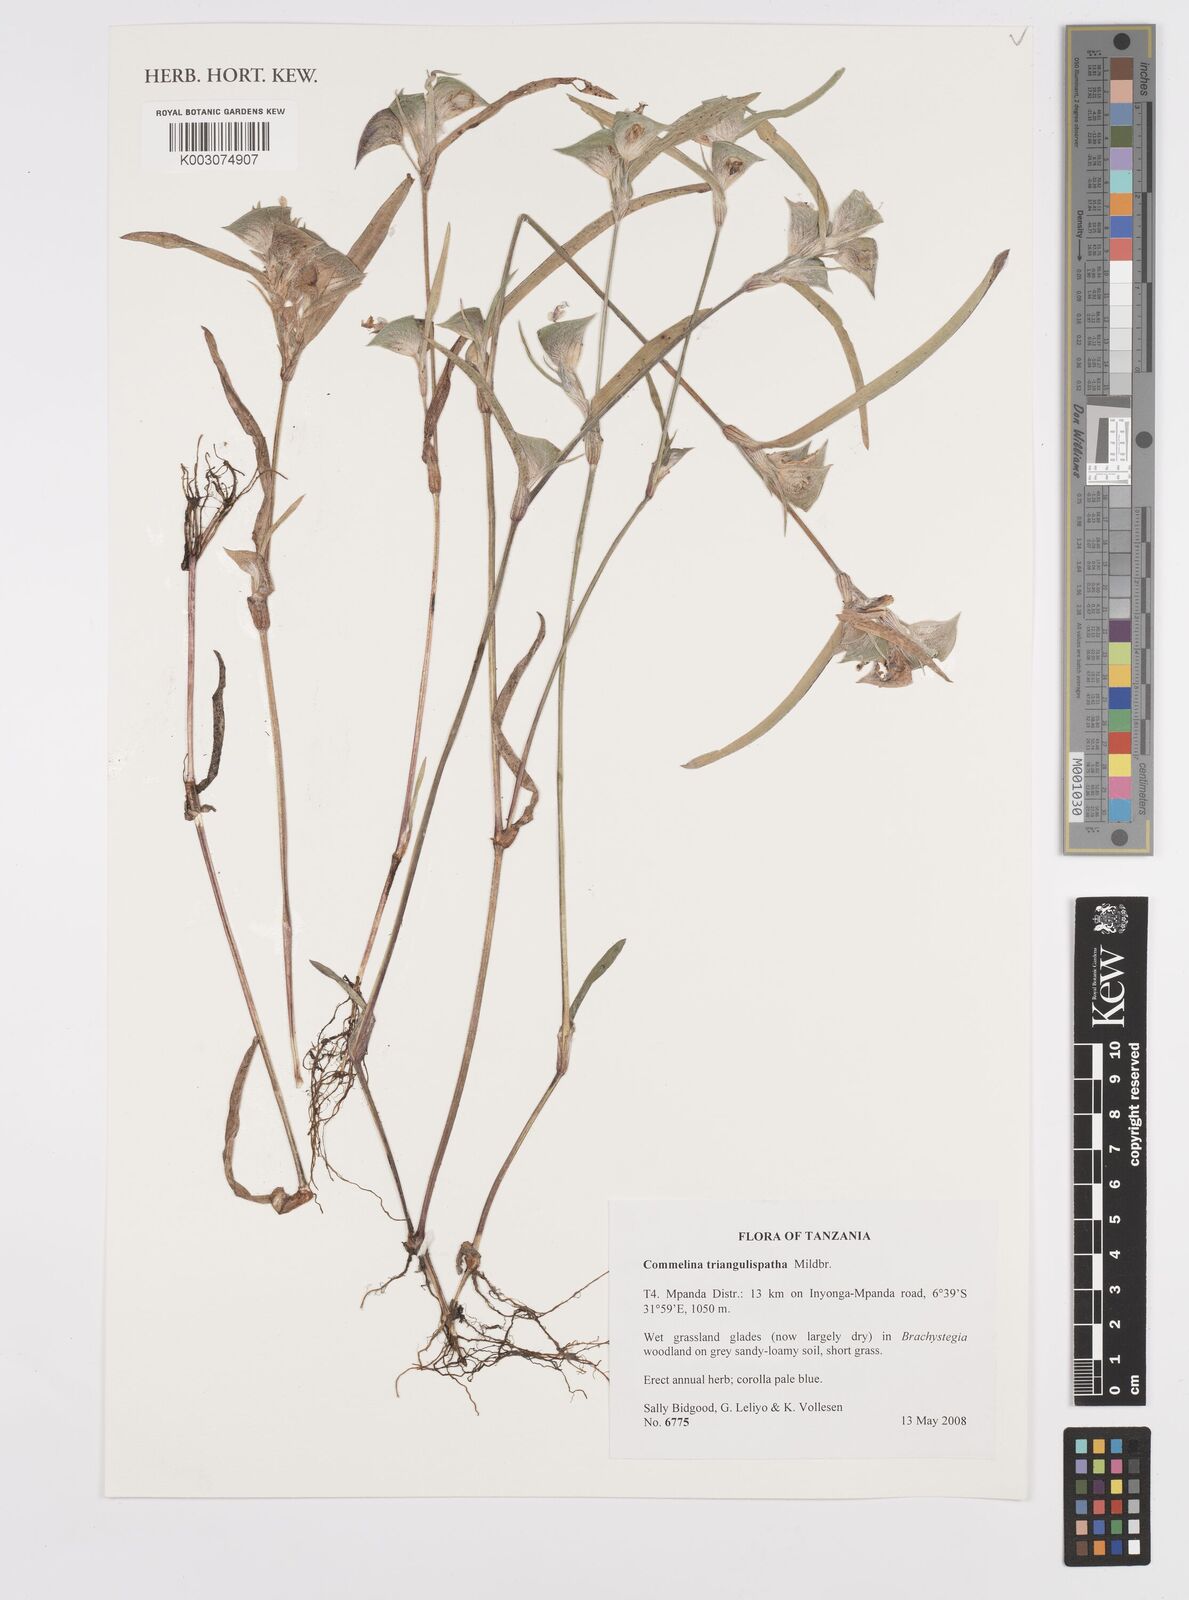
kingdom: Plantae
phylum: Tracheophyta
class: Liliopsida
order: Commelinales
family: Commelinaceae
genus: Commelina
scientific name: Commelina triangulispatha
